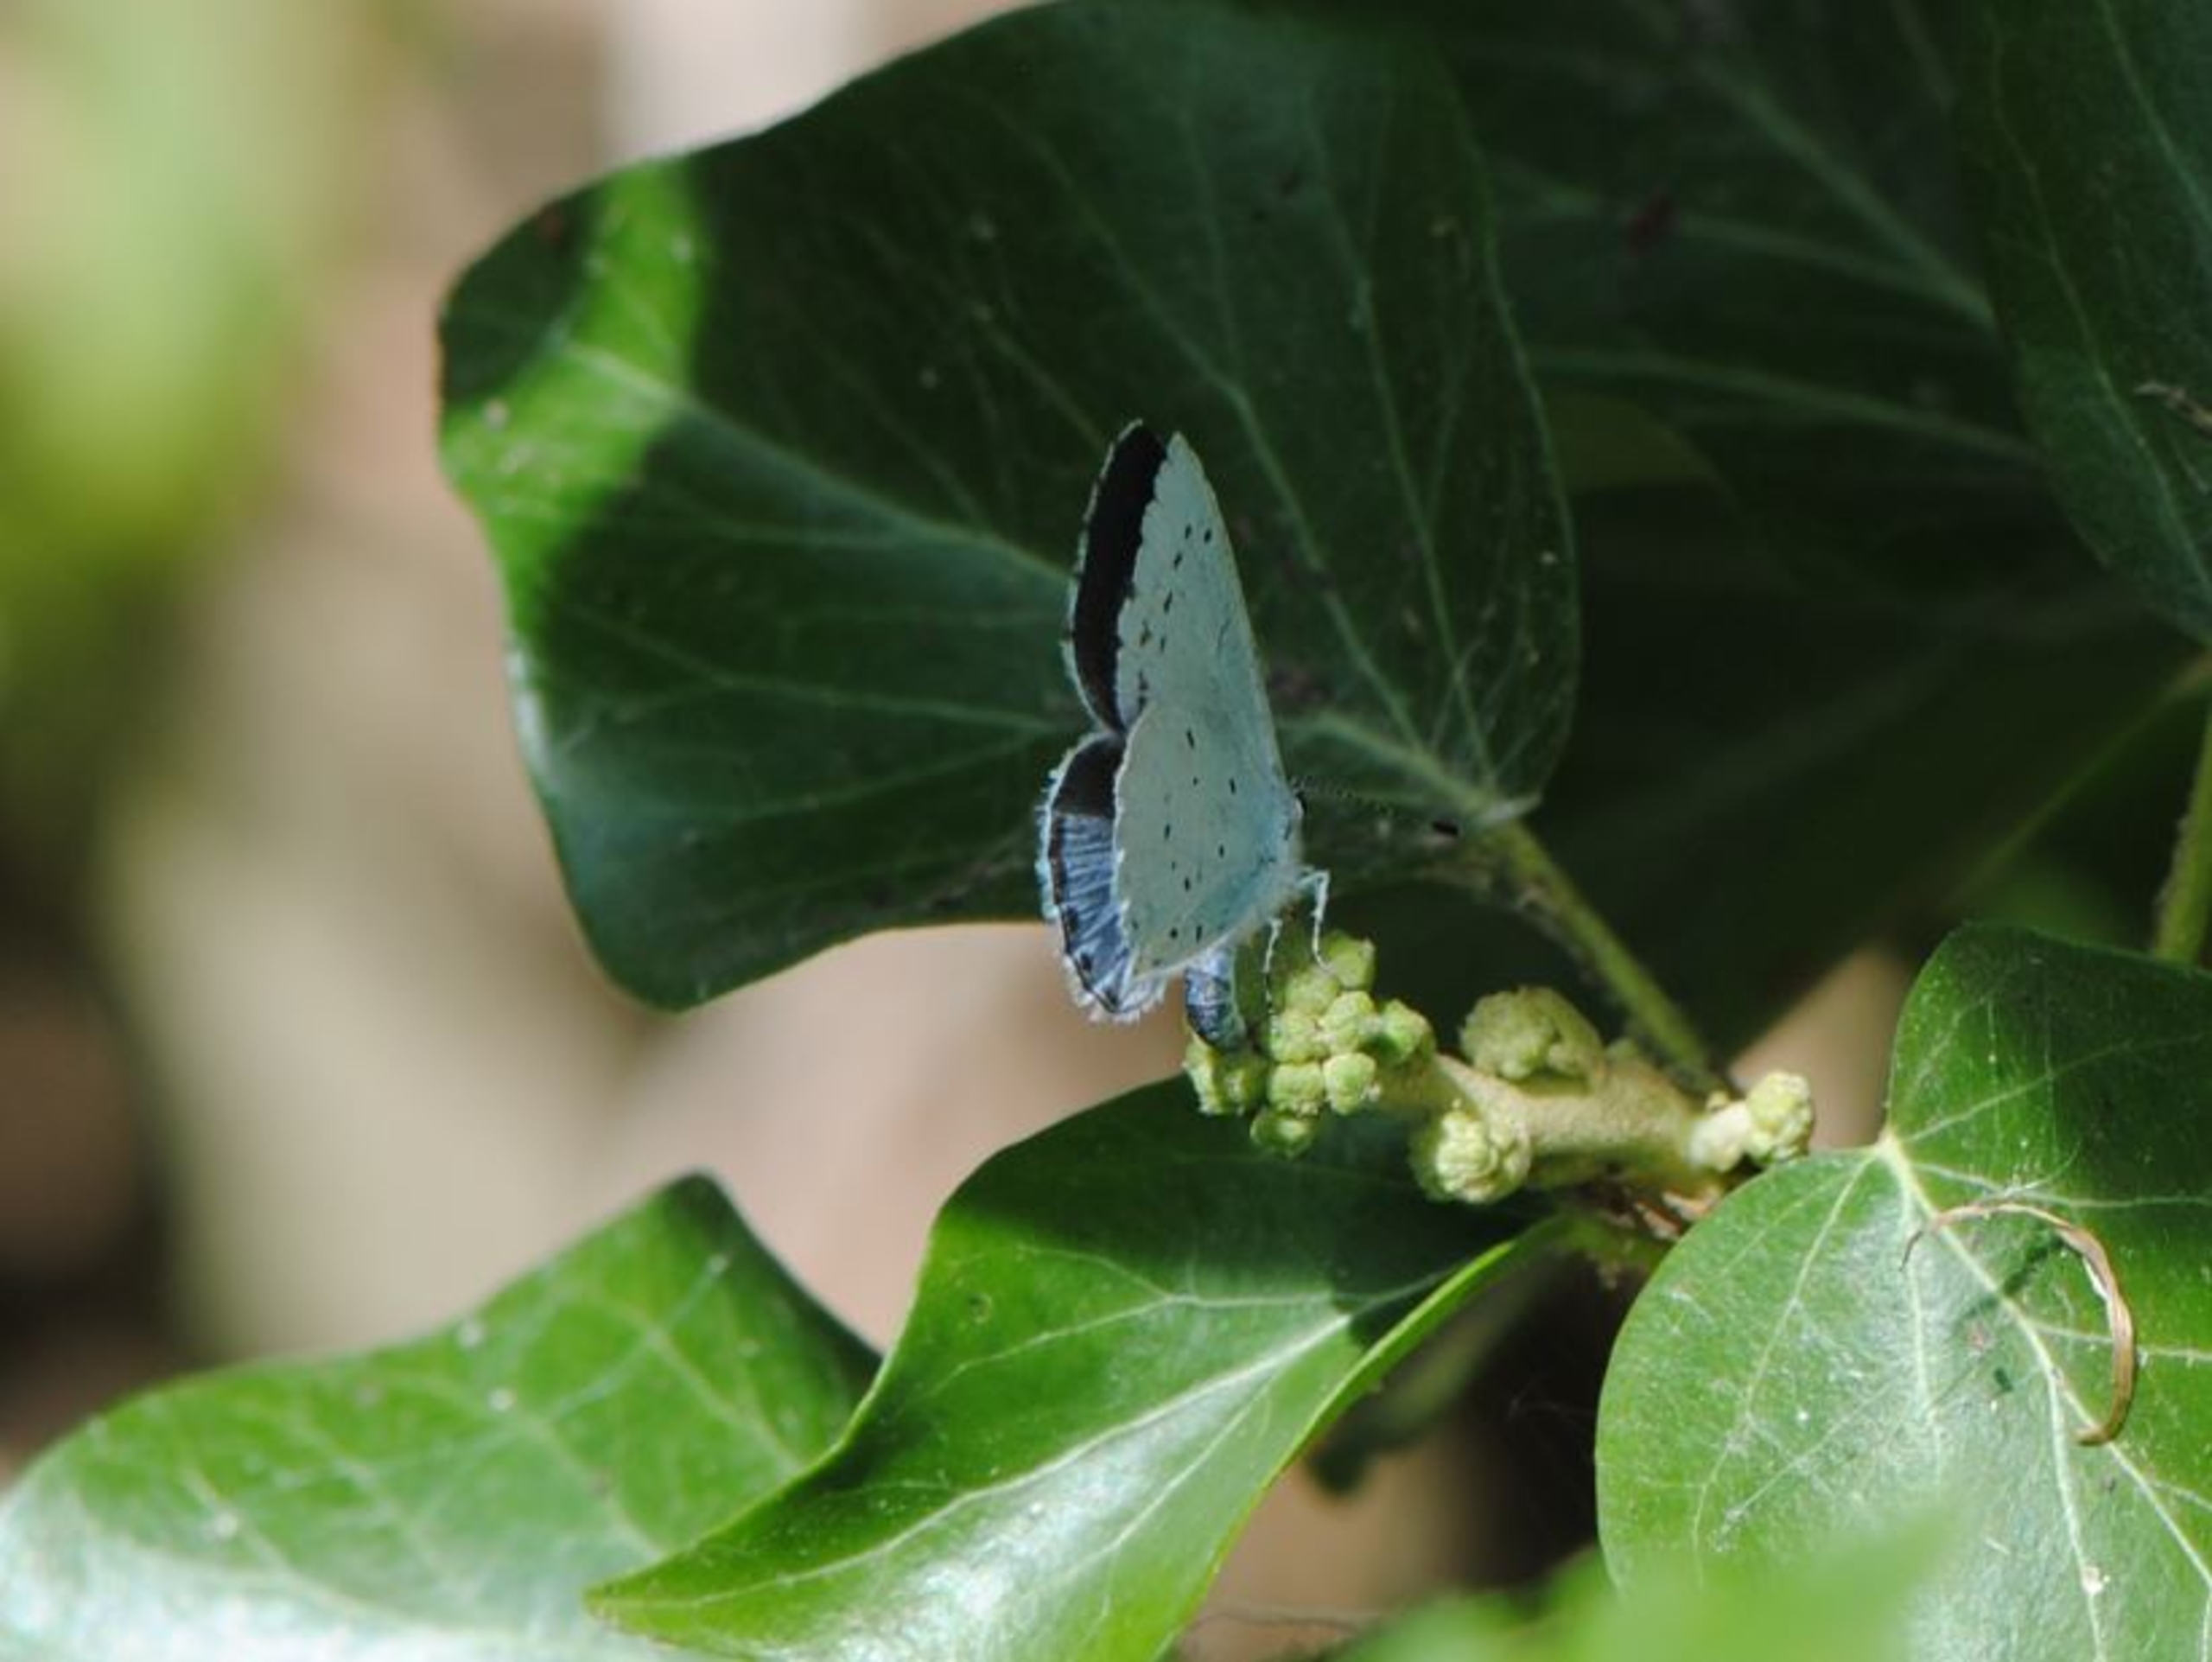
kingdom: Animalia
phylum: Arthropoda
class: Insecta
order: Lepidoptera
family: Lycaenidae
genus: Celastrina
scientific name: Celastrina argiolus
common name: Skovblåfugl
